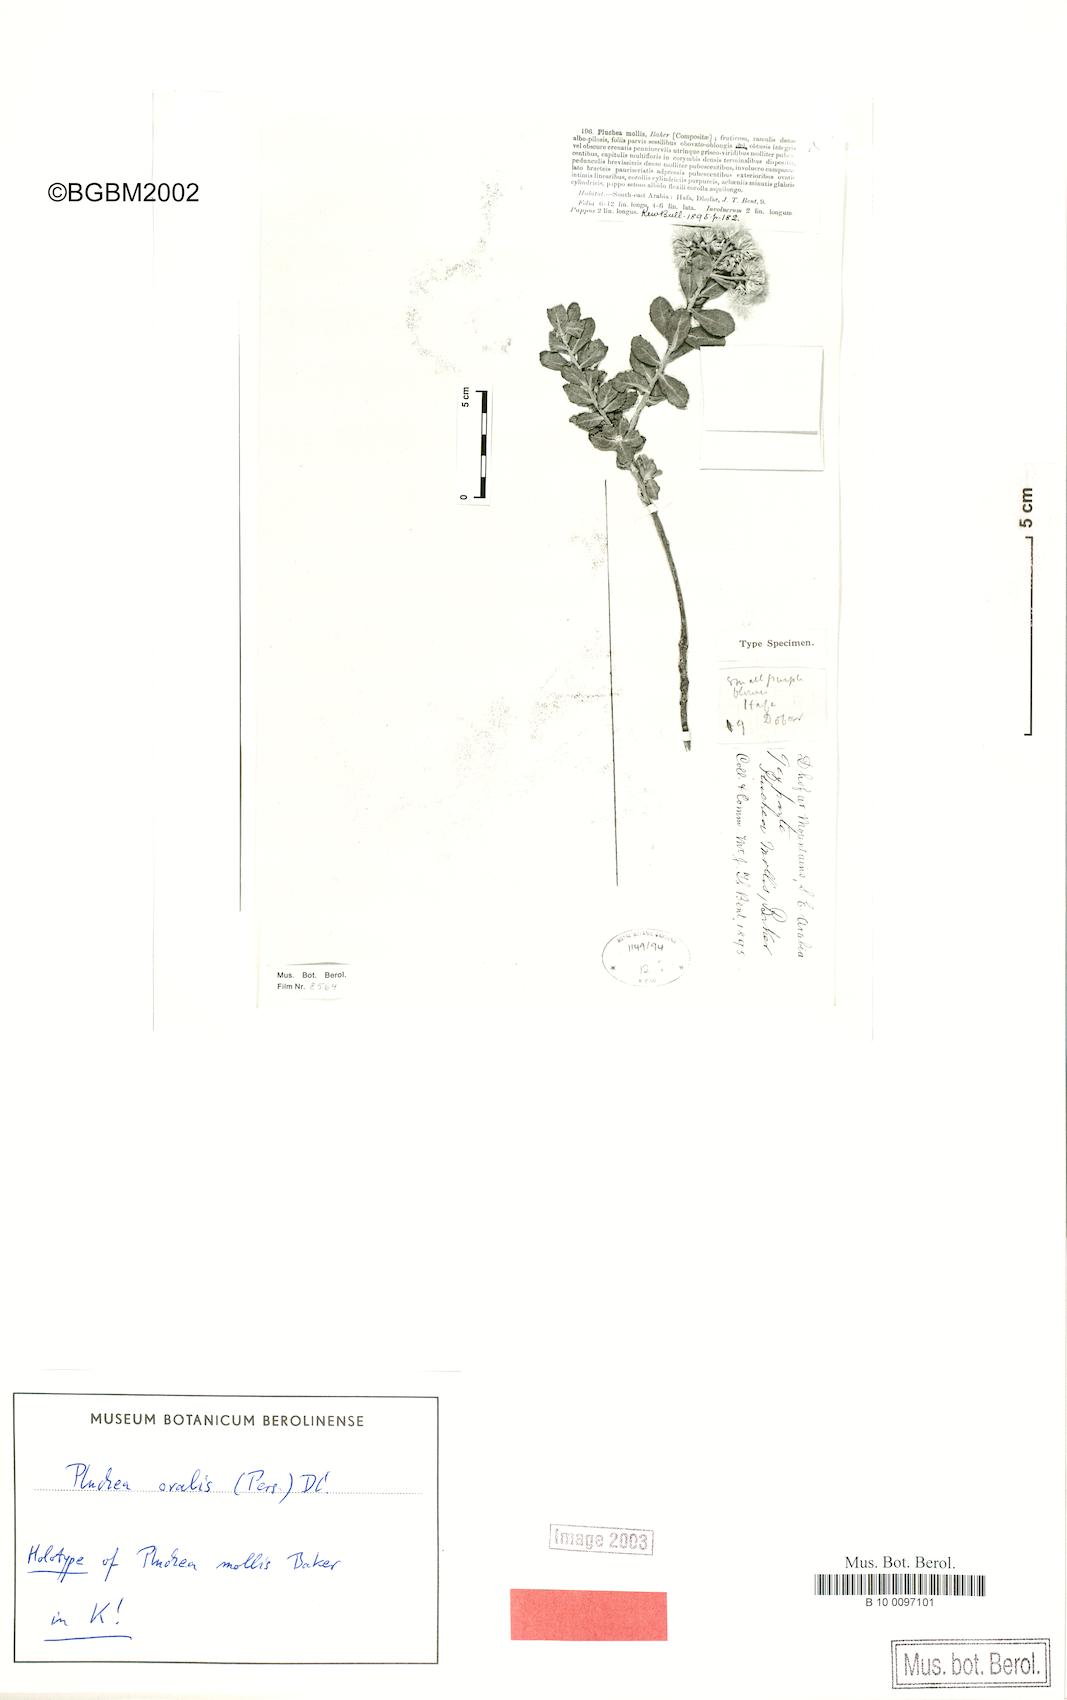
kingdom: Plantae
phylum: Tracheophyta
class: Magnoliopsida
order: Asterales
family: Asteraceae
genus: Pluchea
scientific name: Pluchea ovalis
